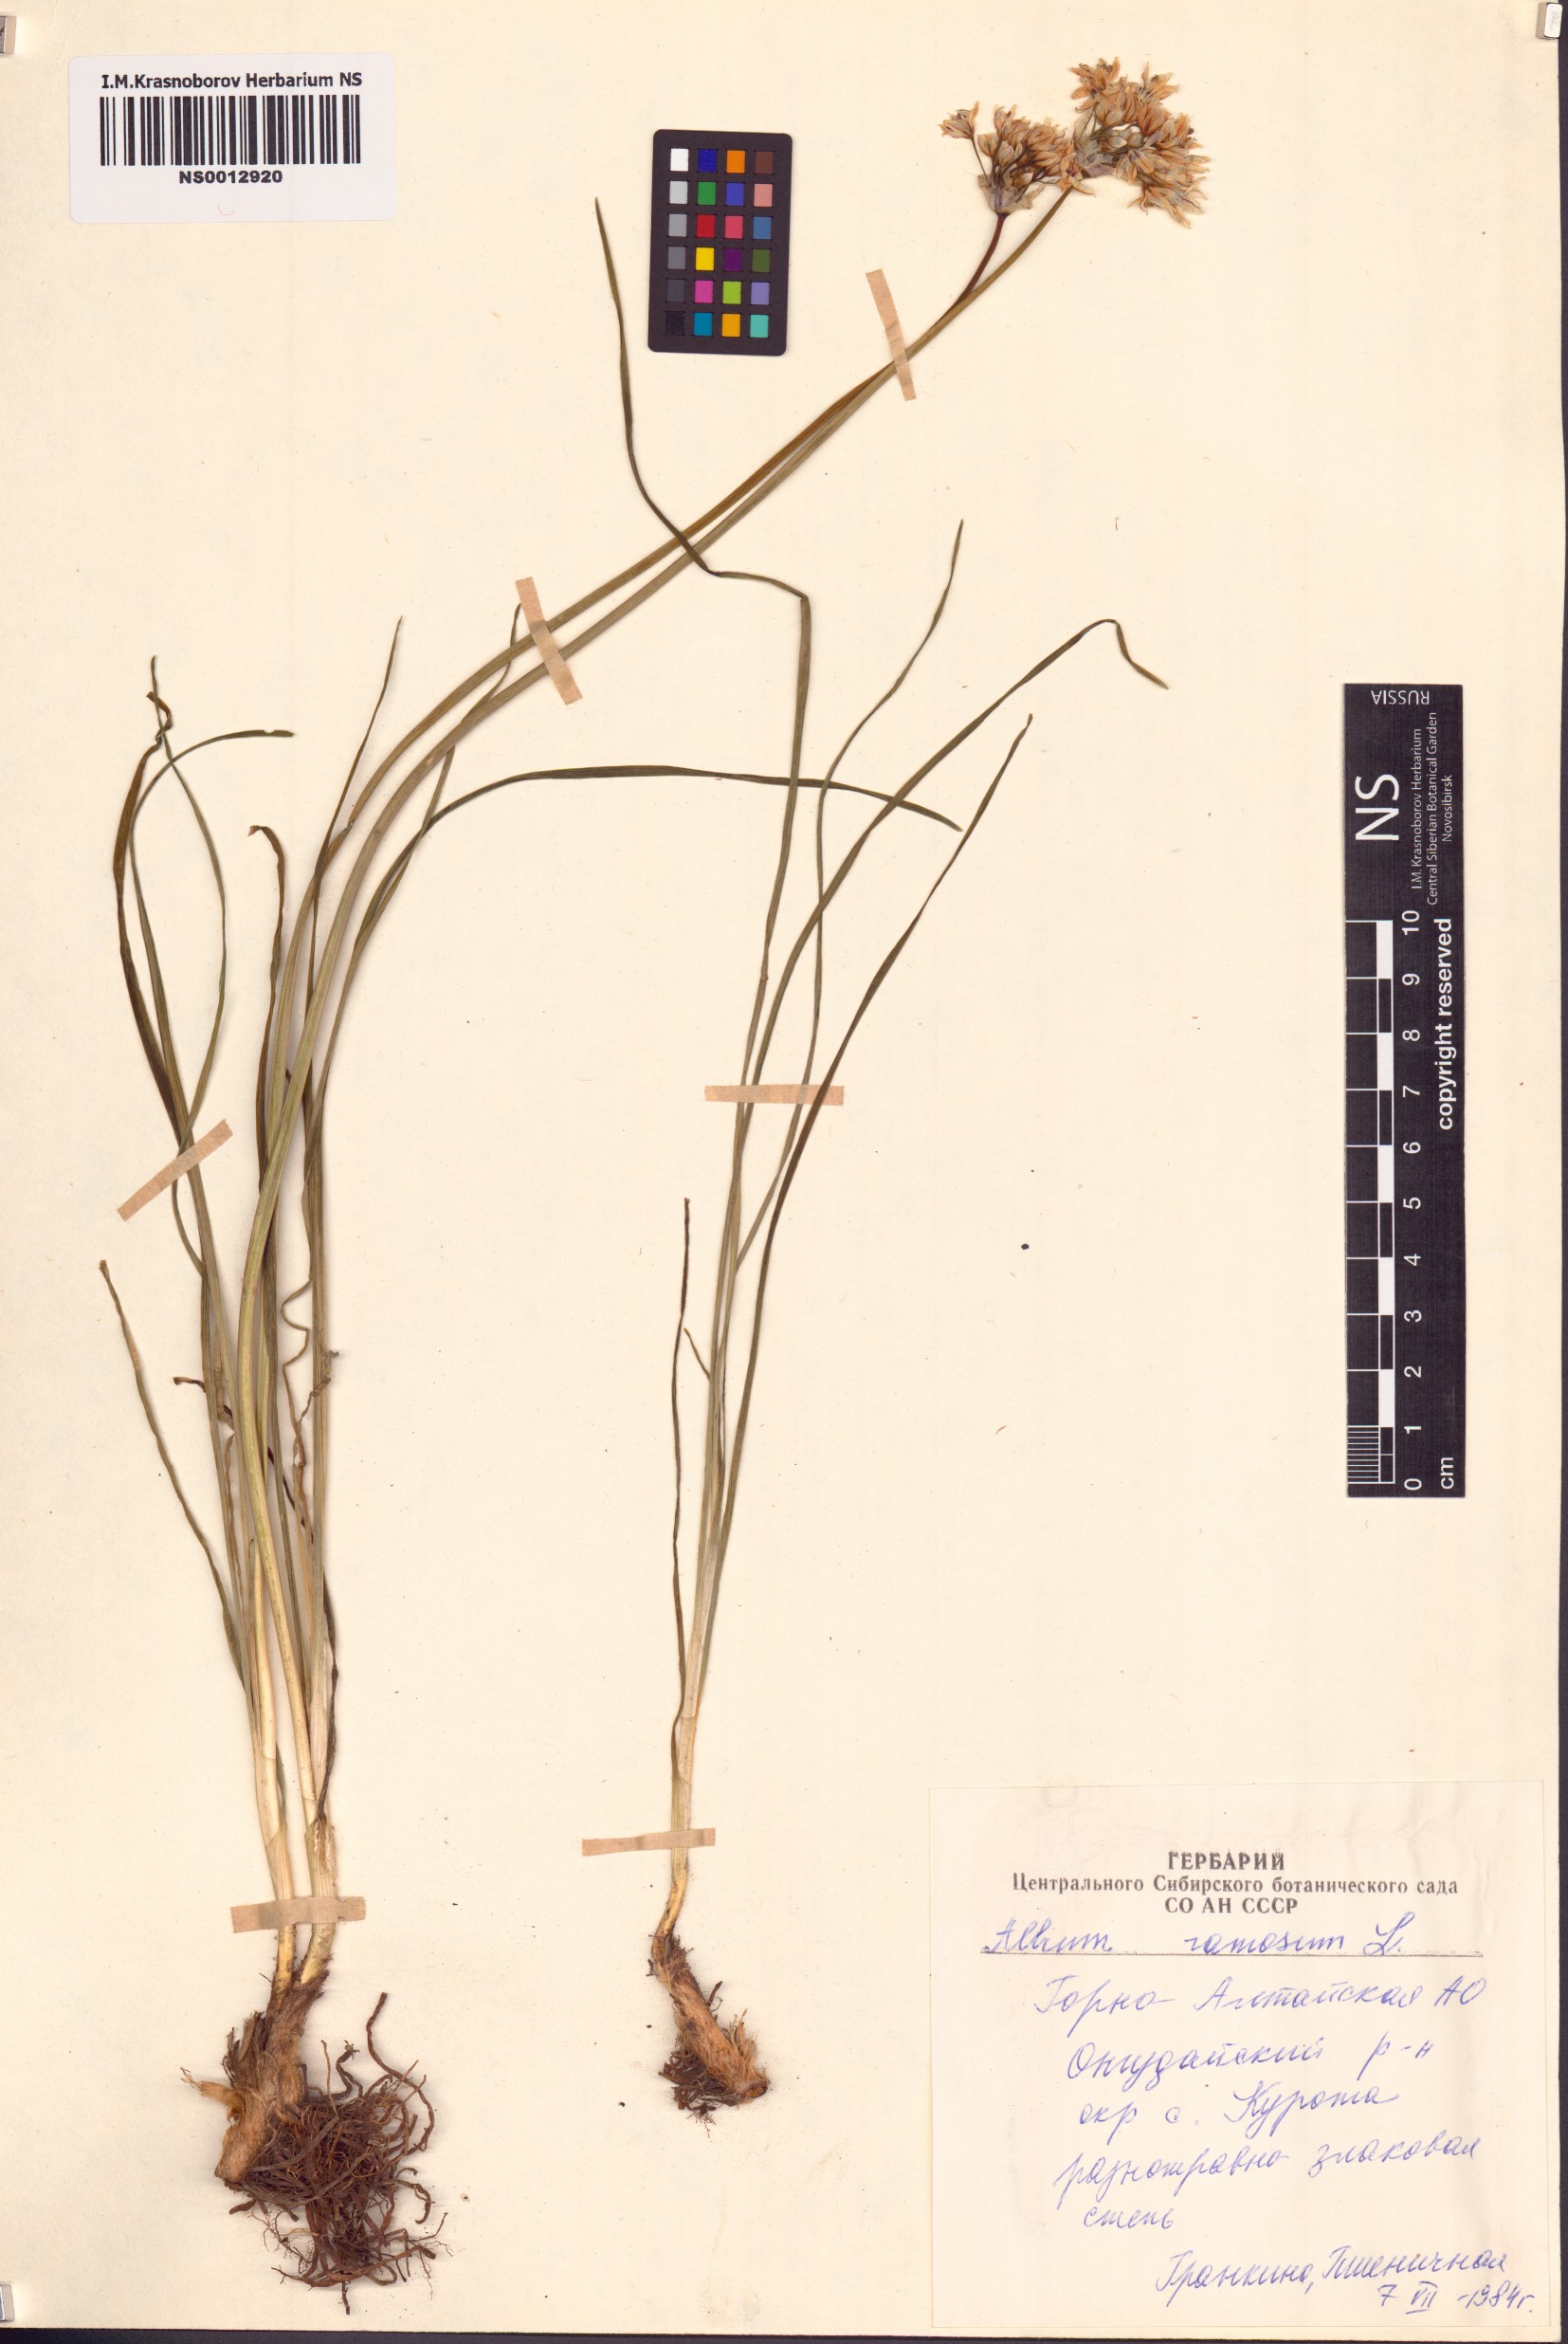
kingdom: Plantae
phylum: Tracheophyta
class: Liliopsida
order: Asparagales
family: Amaryllidaceae
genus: Allium
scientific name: Allium ramosum
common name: Fragrant garlic
